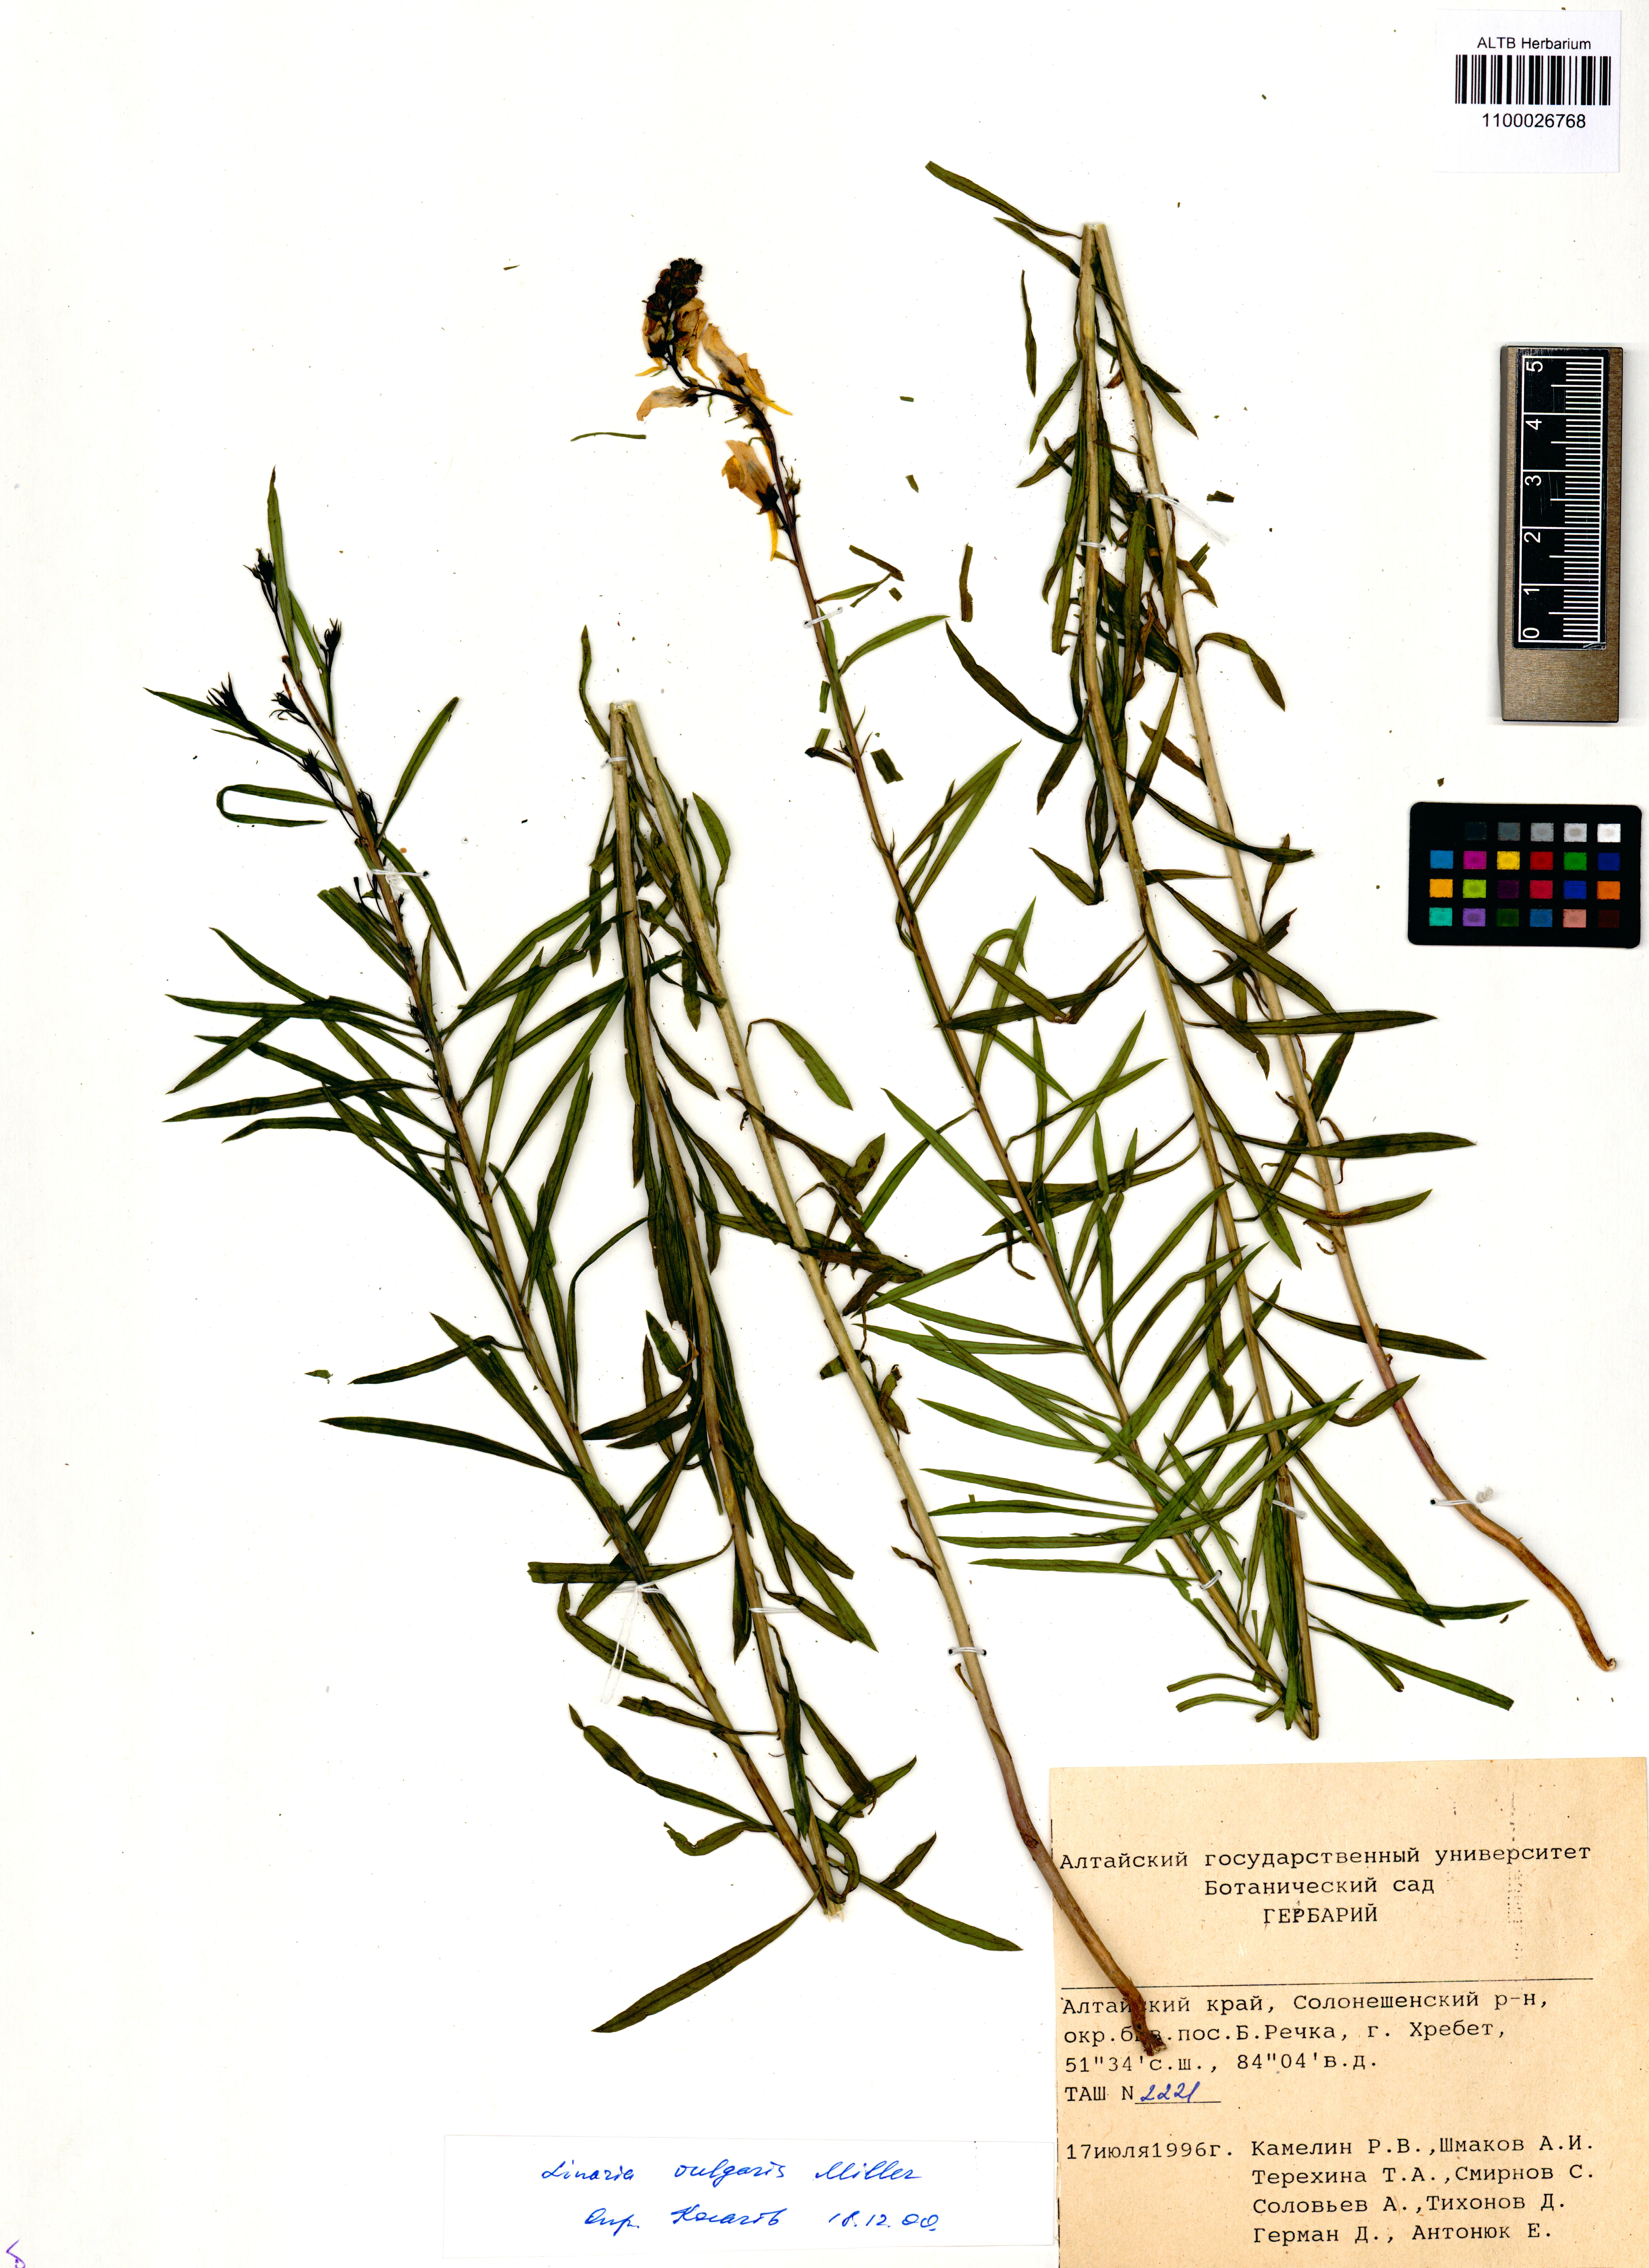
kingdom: Plantae
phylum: Tracheophyta
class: Magnoliopsida
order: Lamiales
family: Plantaginaceae
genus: Linaria
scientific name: Linaria vulgaris
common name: Butter and eggs
